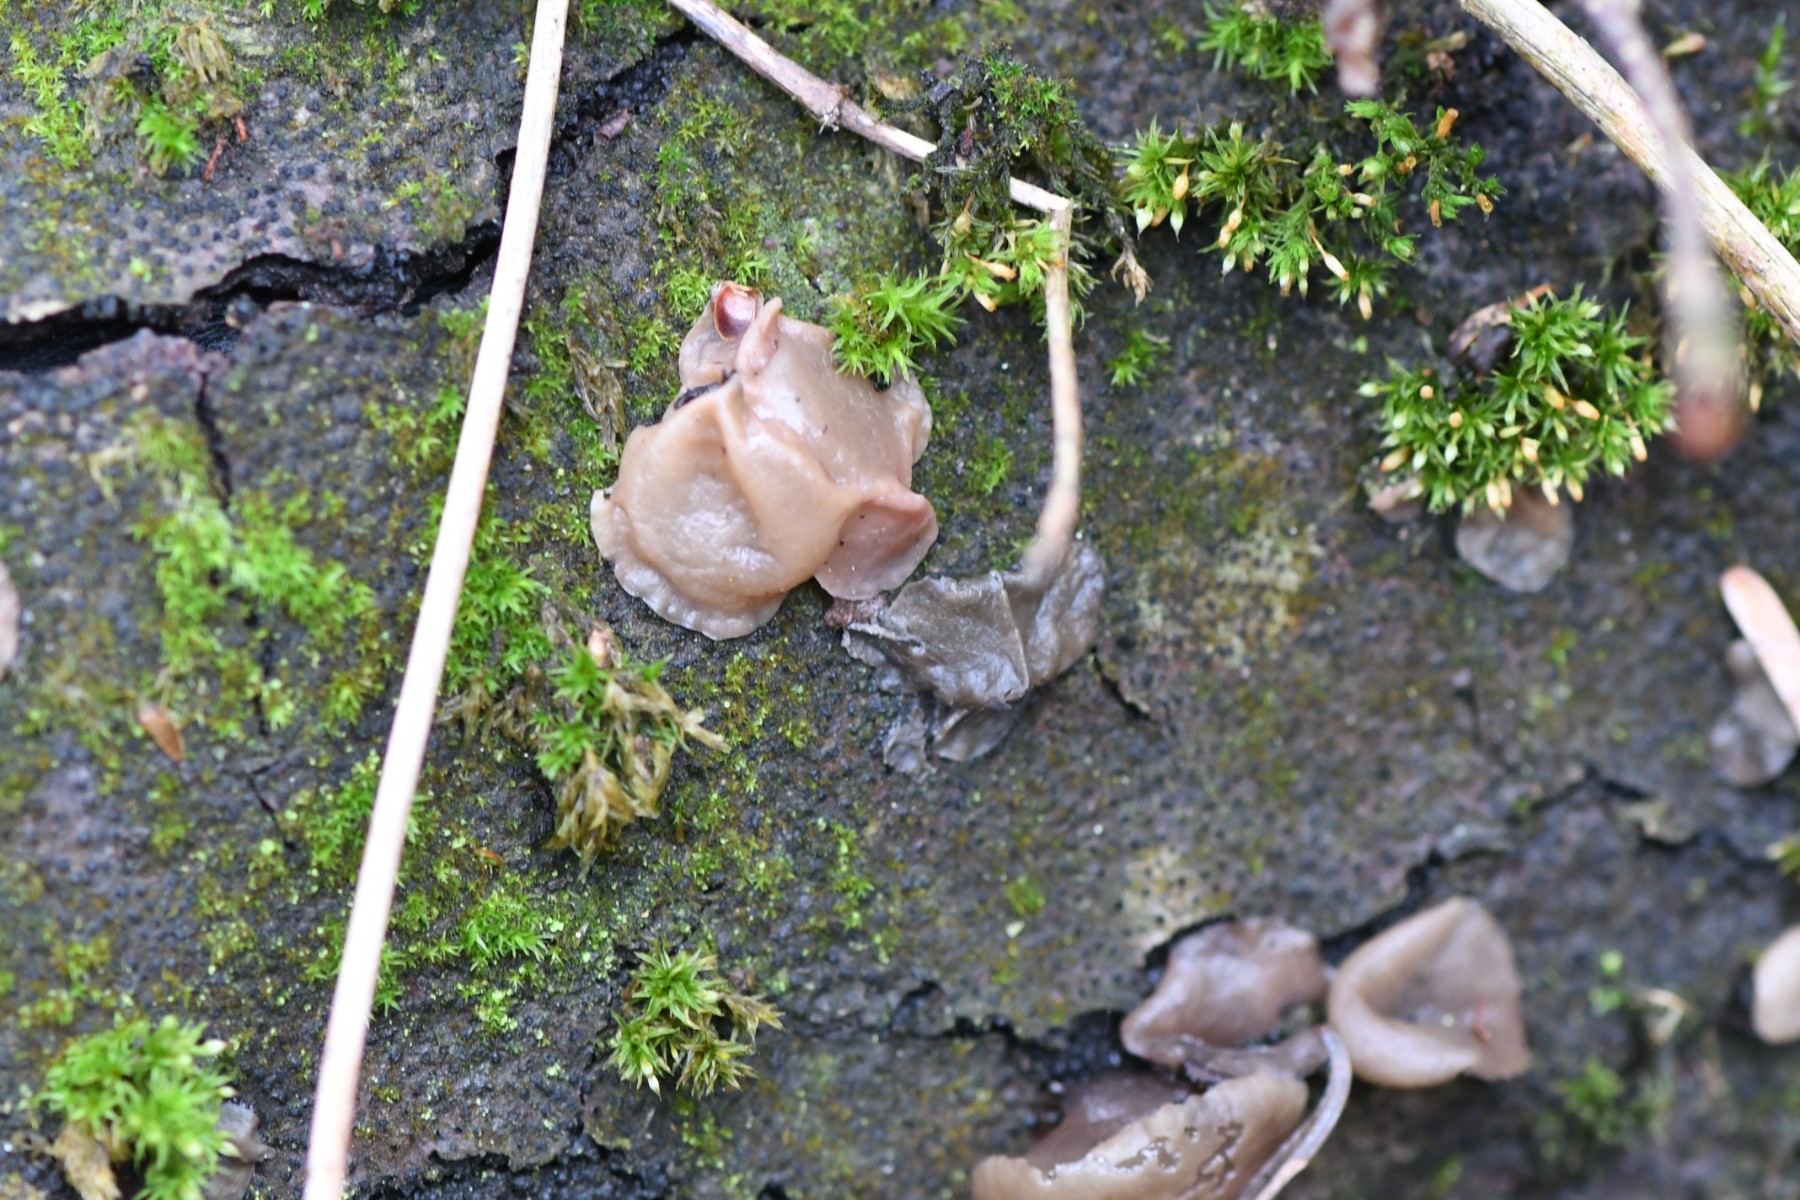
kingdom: Fungi
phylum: Ascomycota
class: Leotiomycetes
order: Helotiales
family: Gelatinodiscaceae
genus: Neobulgaria
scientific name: Neobulgaria pura
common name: bleg bævreskive
